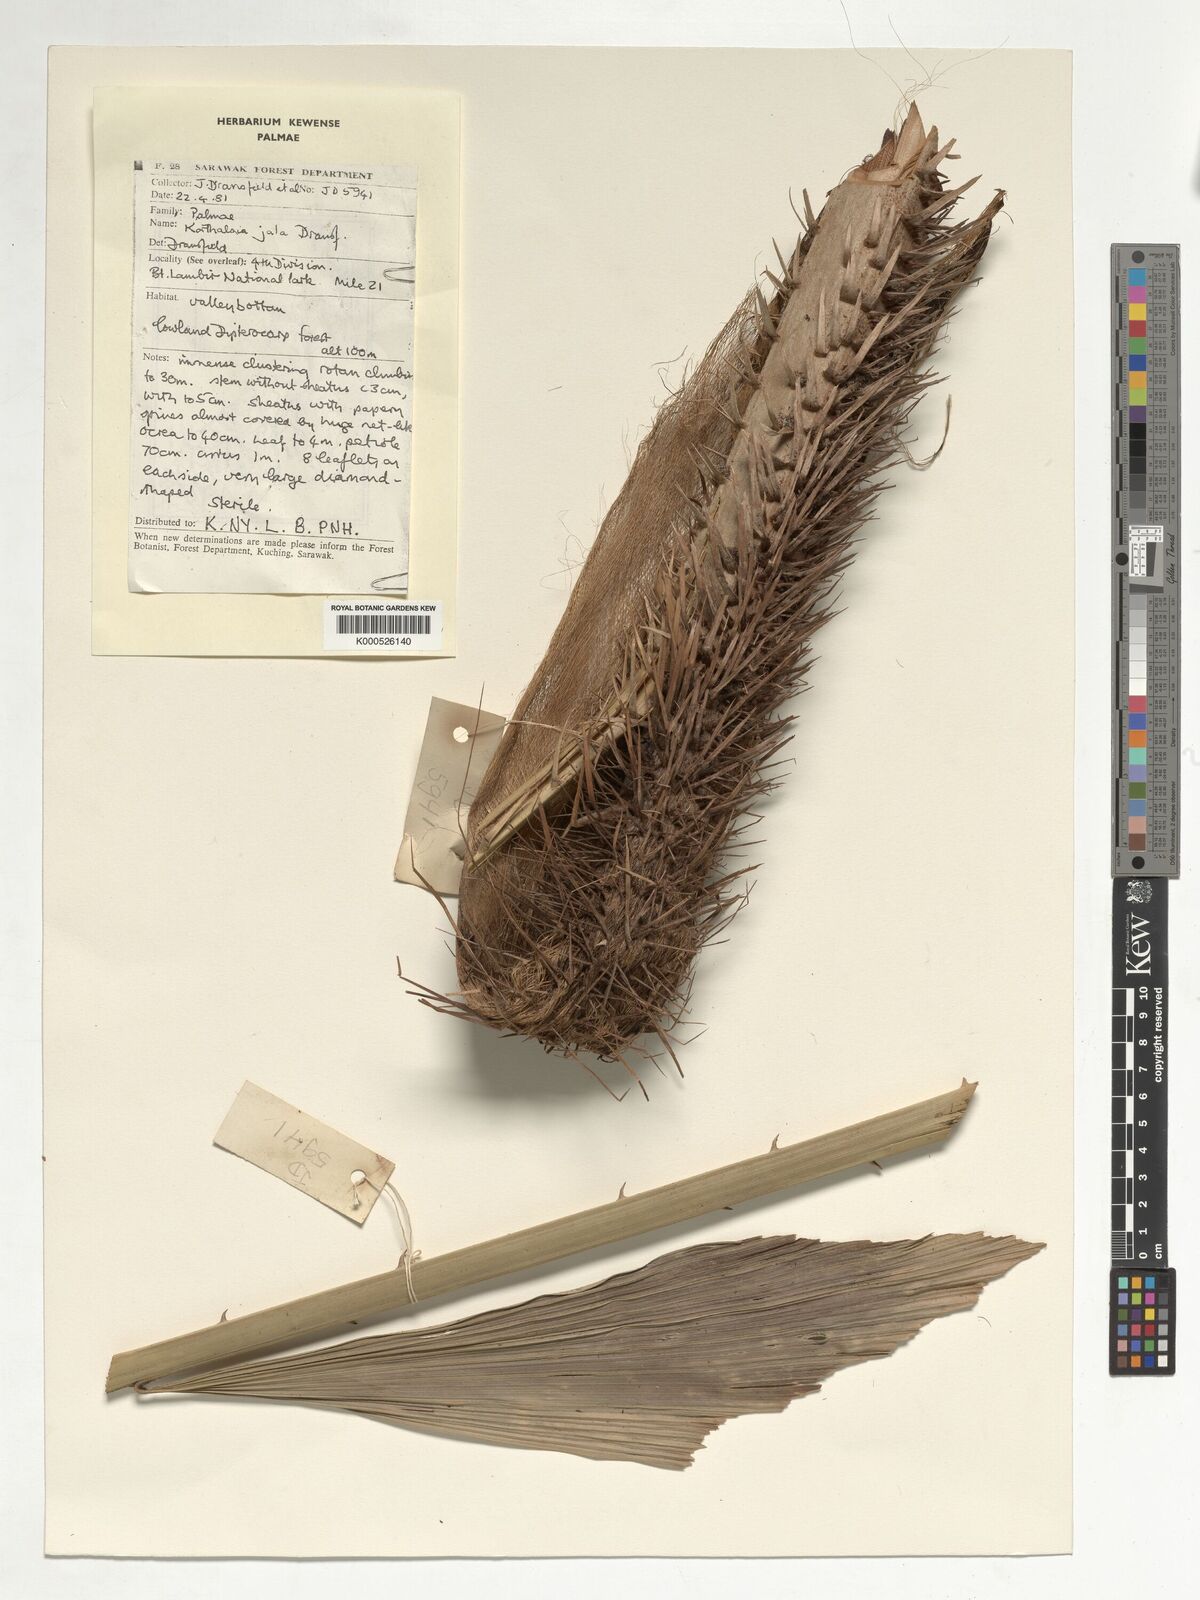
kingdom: Plantae
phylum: Tracheophyta
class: Liliopsida
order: Arecales
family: Arecaceae
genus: Korthalsia
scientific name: Korthalsia jala
